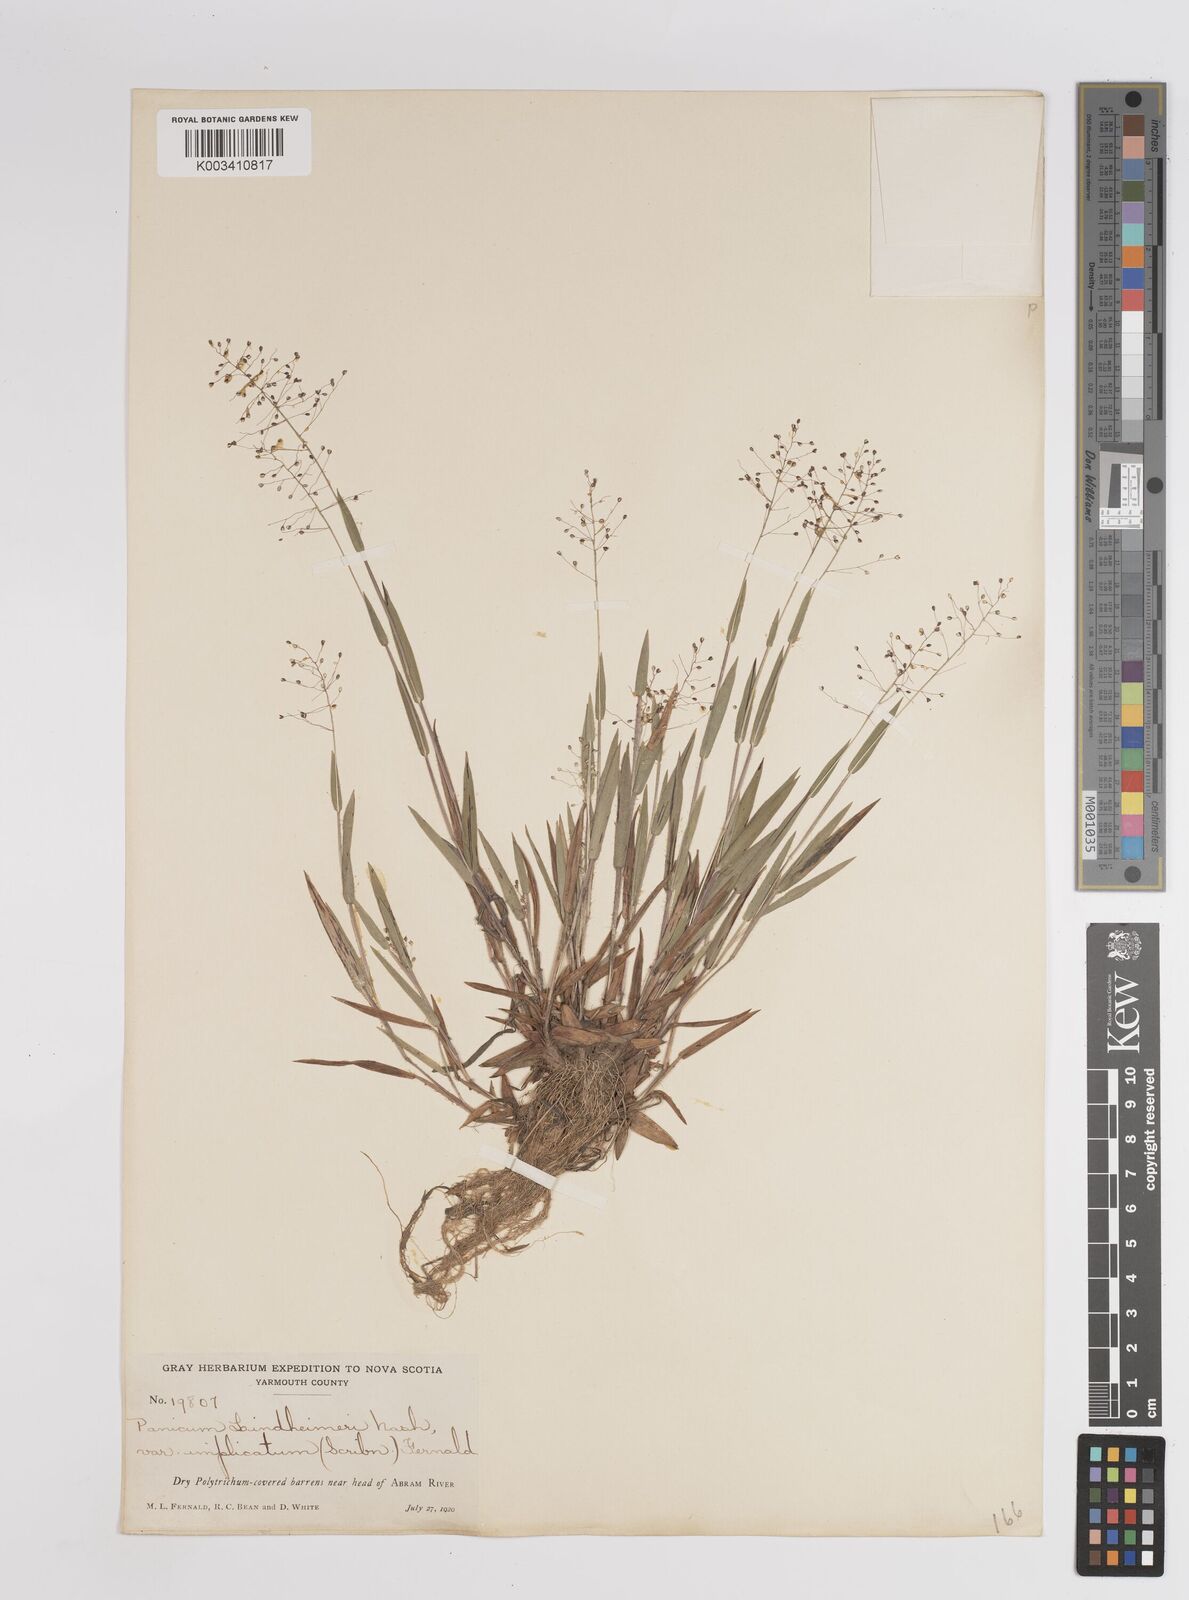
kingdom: Plantae
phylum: Tracheophyta
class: Liliopsida
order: Poales
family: Poaceae
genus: Dichanthelium
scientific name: Dichanthelium acuminatum
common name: Hairy panic grass
